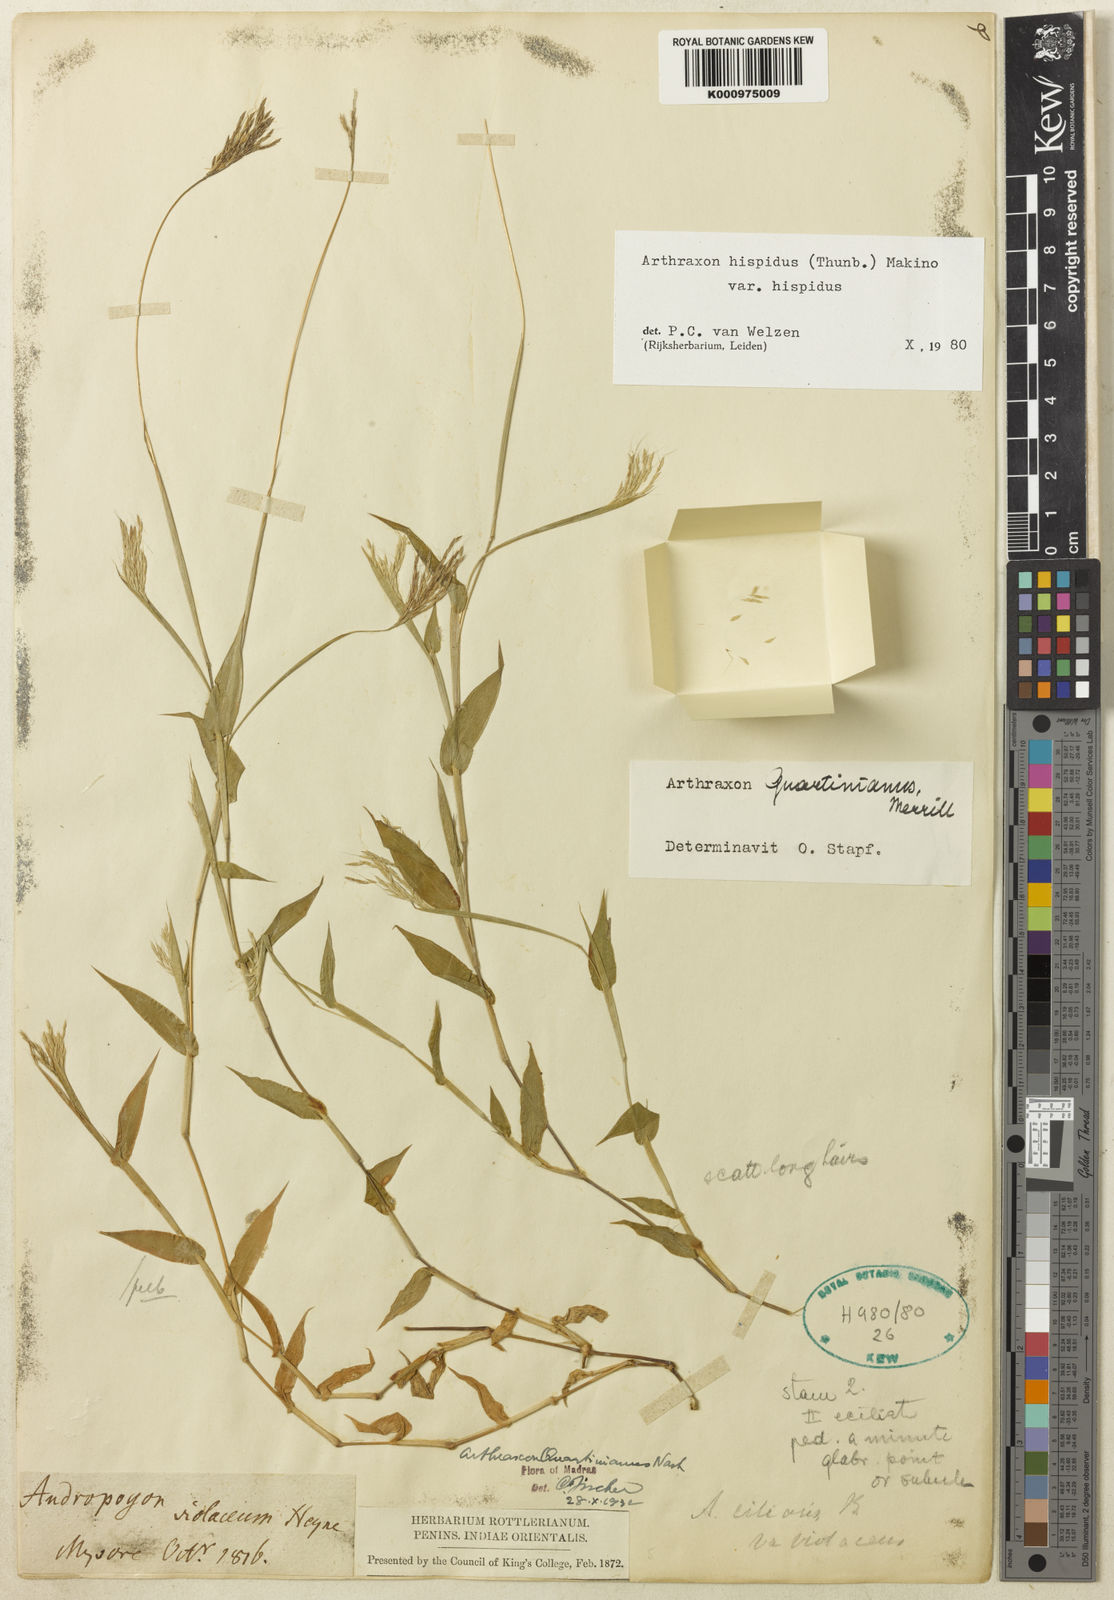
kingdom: Plantae
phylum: Tracheophyta
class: Liliopsida
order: Poales
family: Poaceae
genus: Arthraxon
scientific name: Arthraxon hispidus
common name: Small carpgrass
